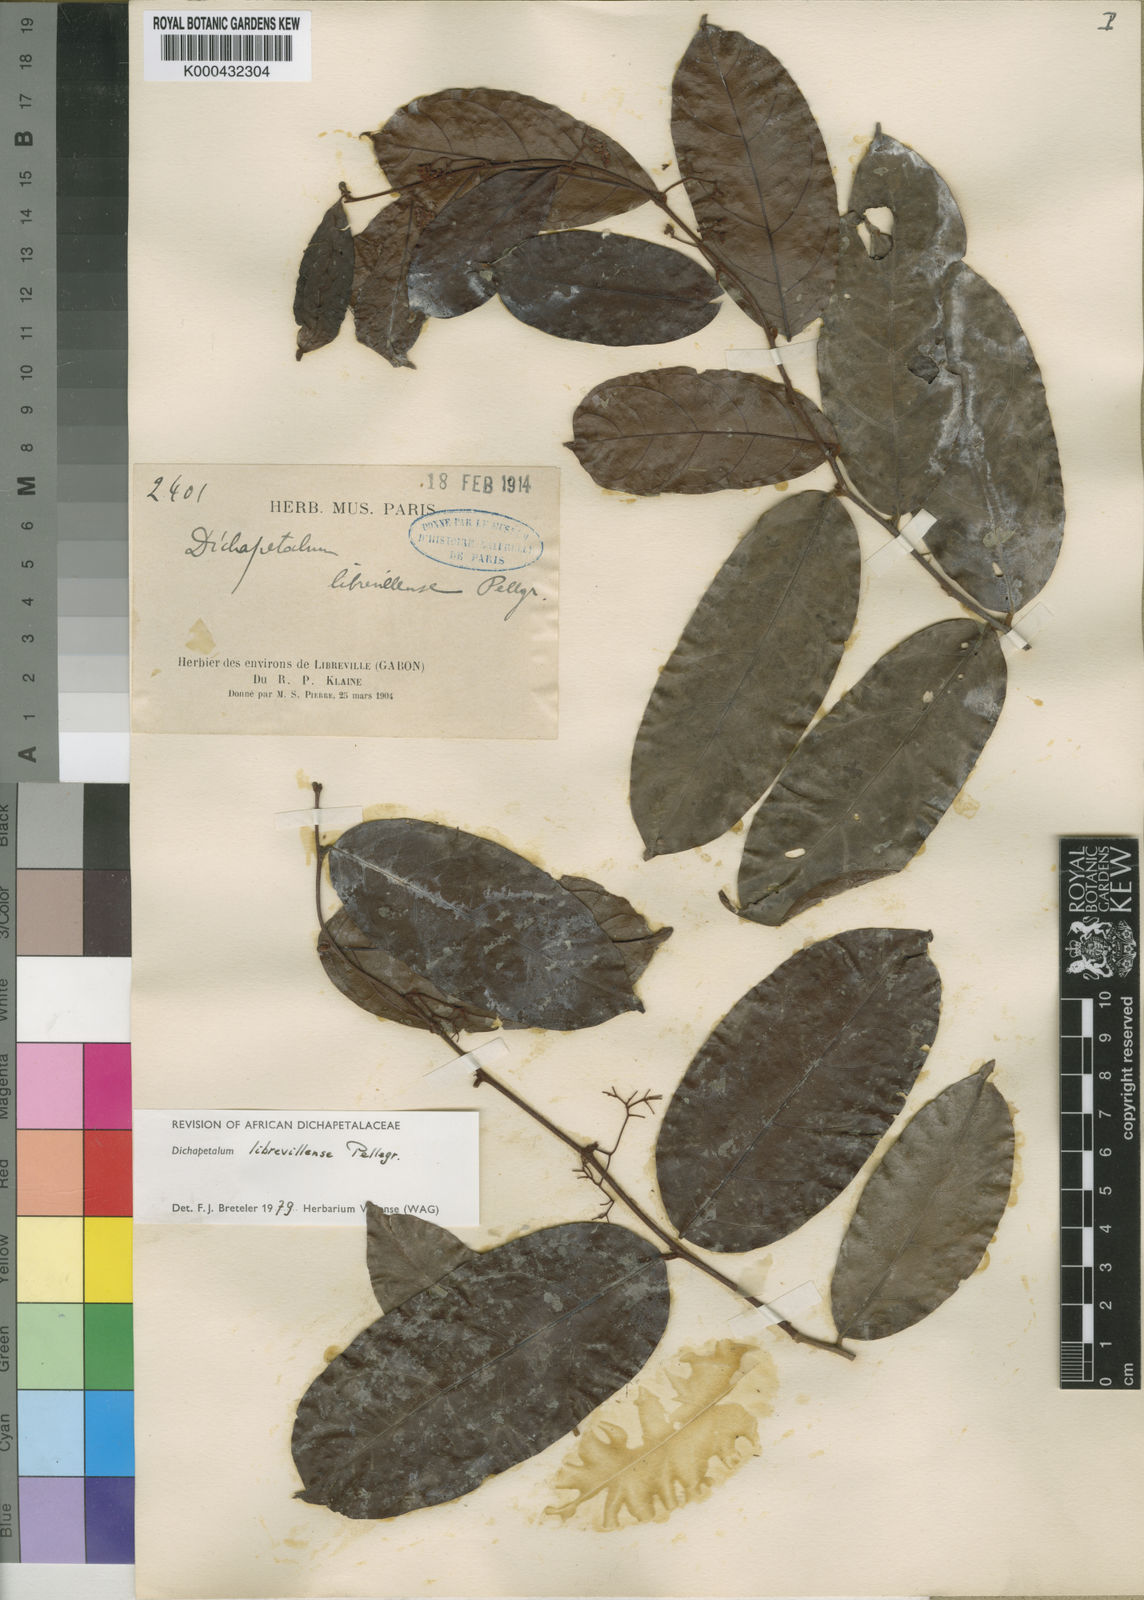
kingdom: Plantae
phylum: Tracheophyta
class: Magnoliopsida
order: Malpighiales
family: Dichapetalaceae
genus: Dichapetalum
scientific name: Dichapetalum librevillense
